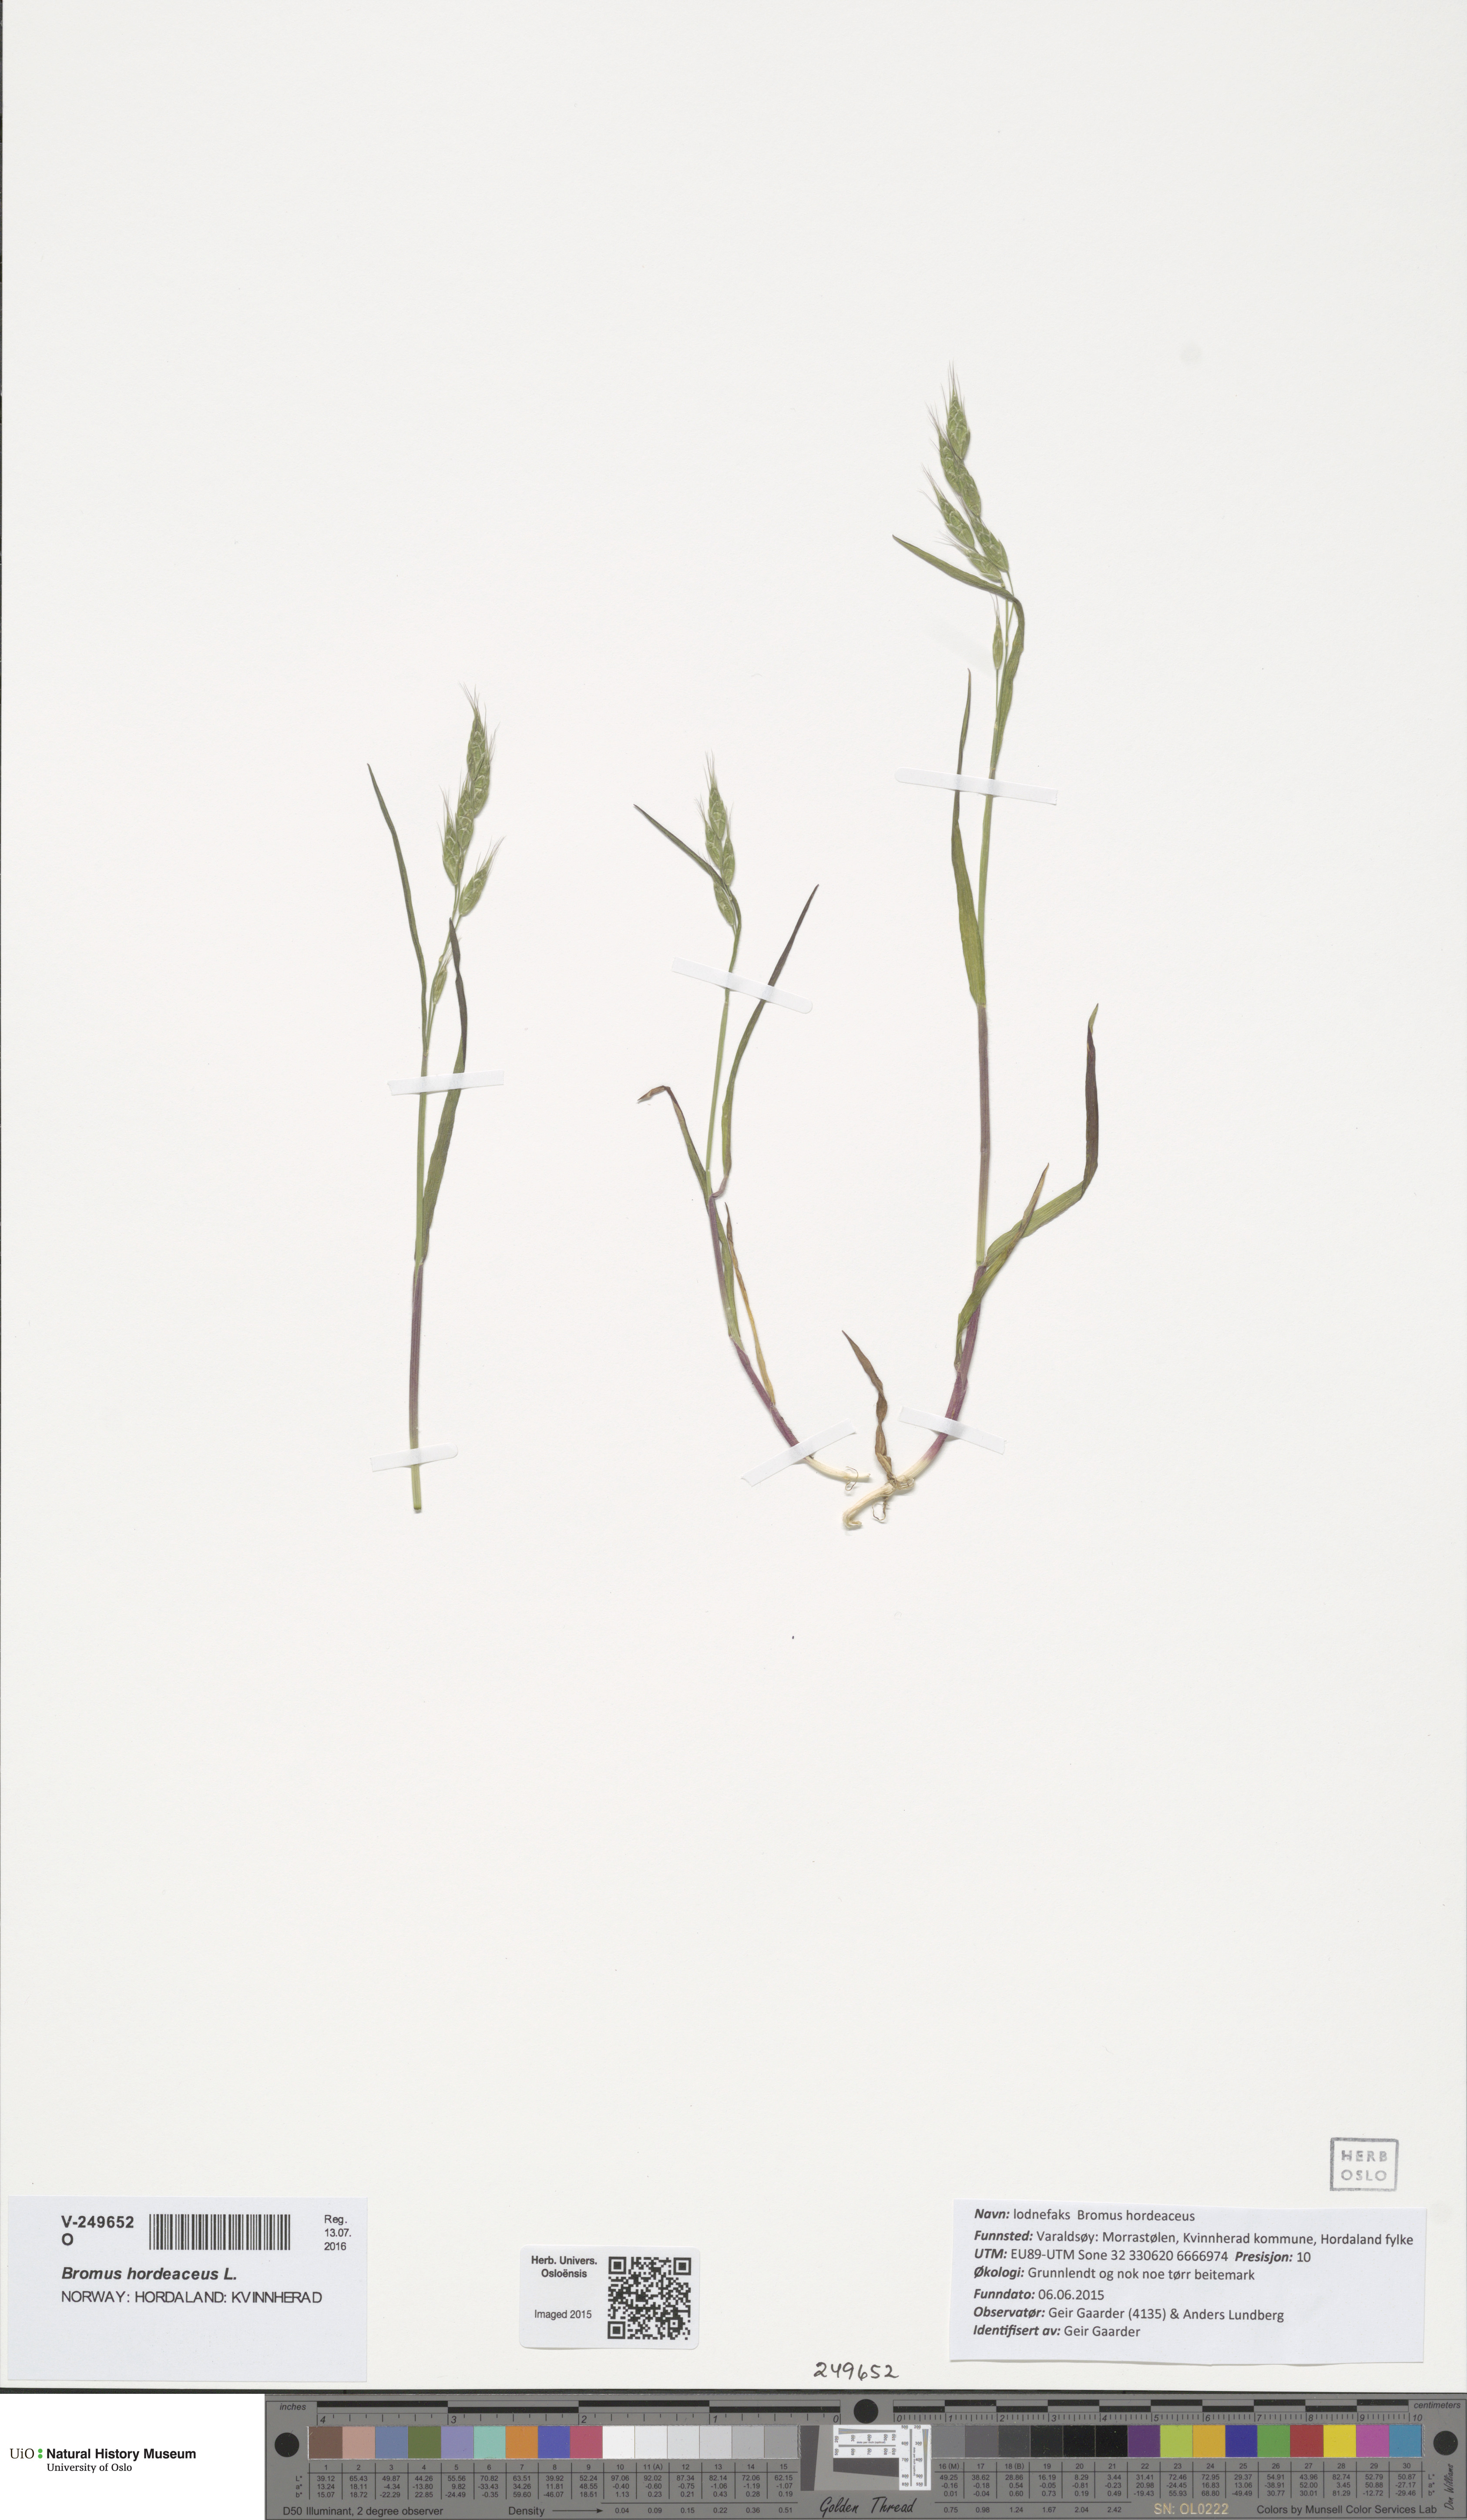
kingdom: Plantae
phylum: Tracheophyta
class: Liliopsida
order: Poales
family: Poaceae
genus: Bromus
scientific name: Bromus hordeaceus
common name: Soft brome
